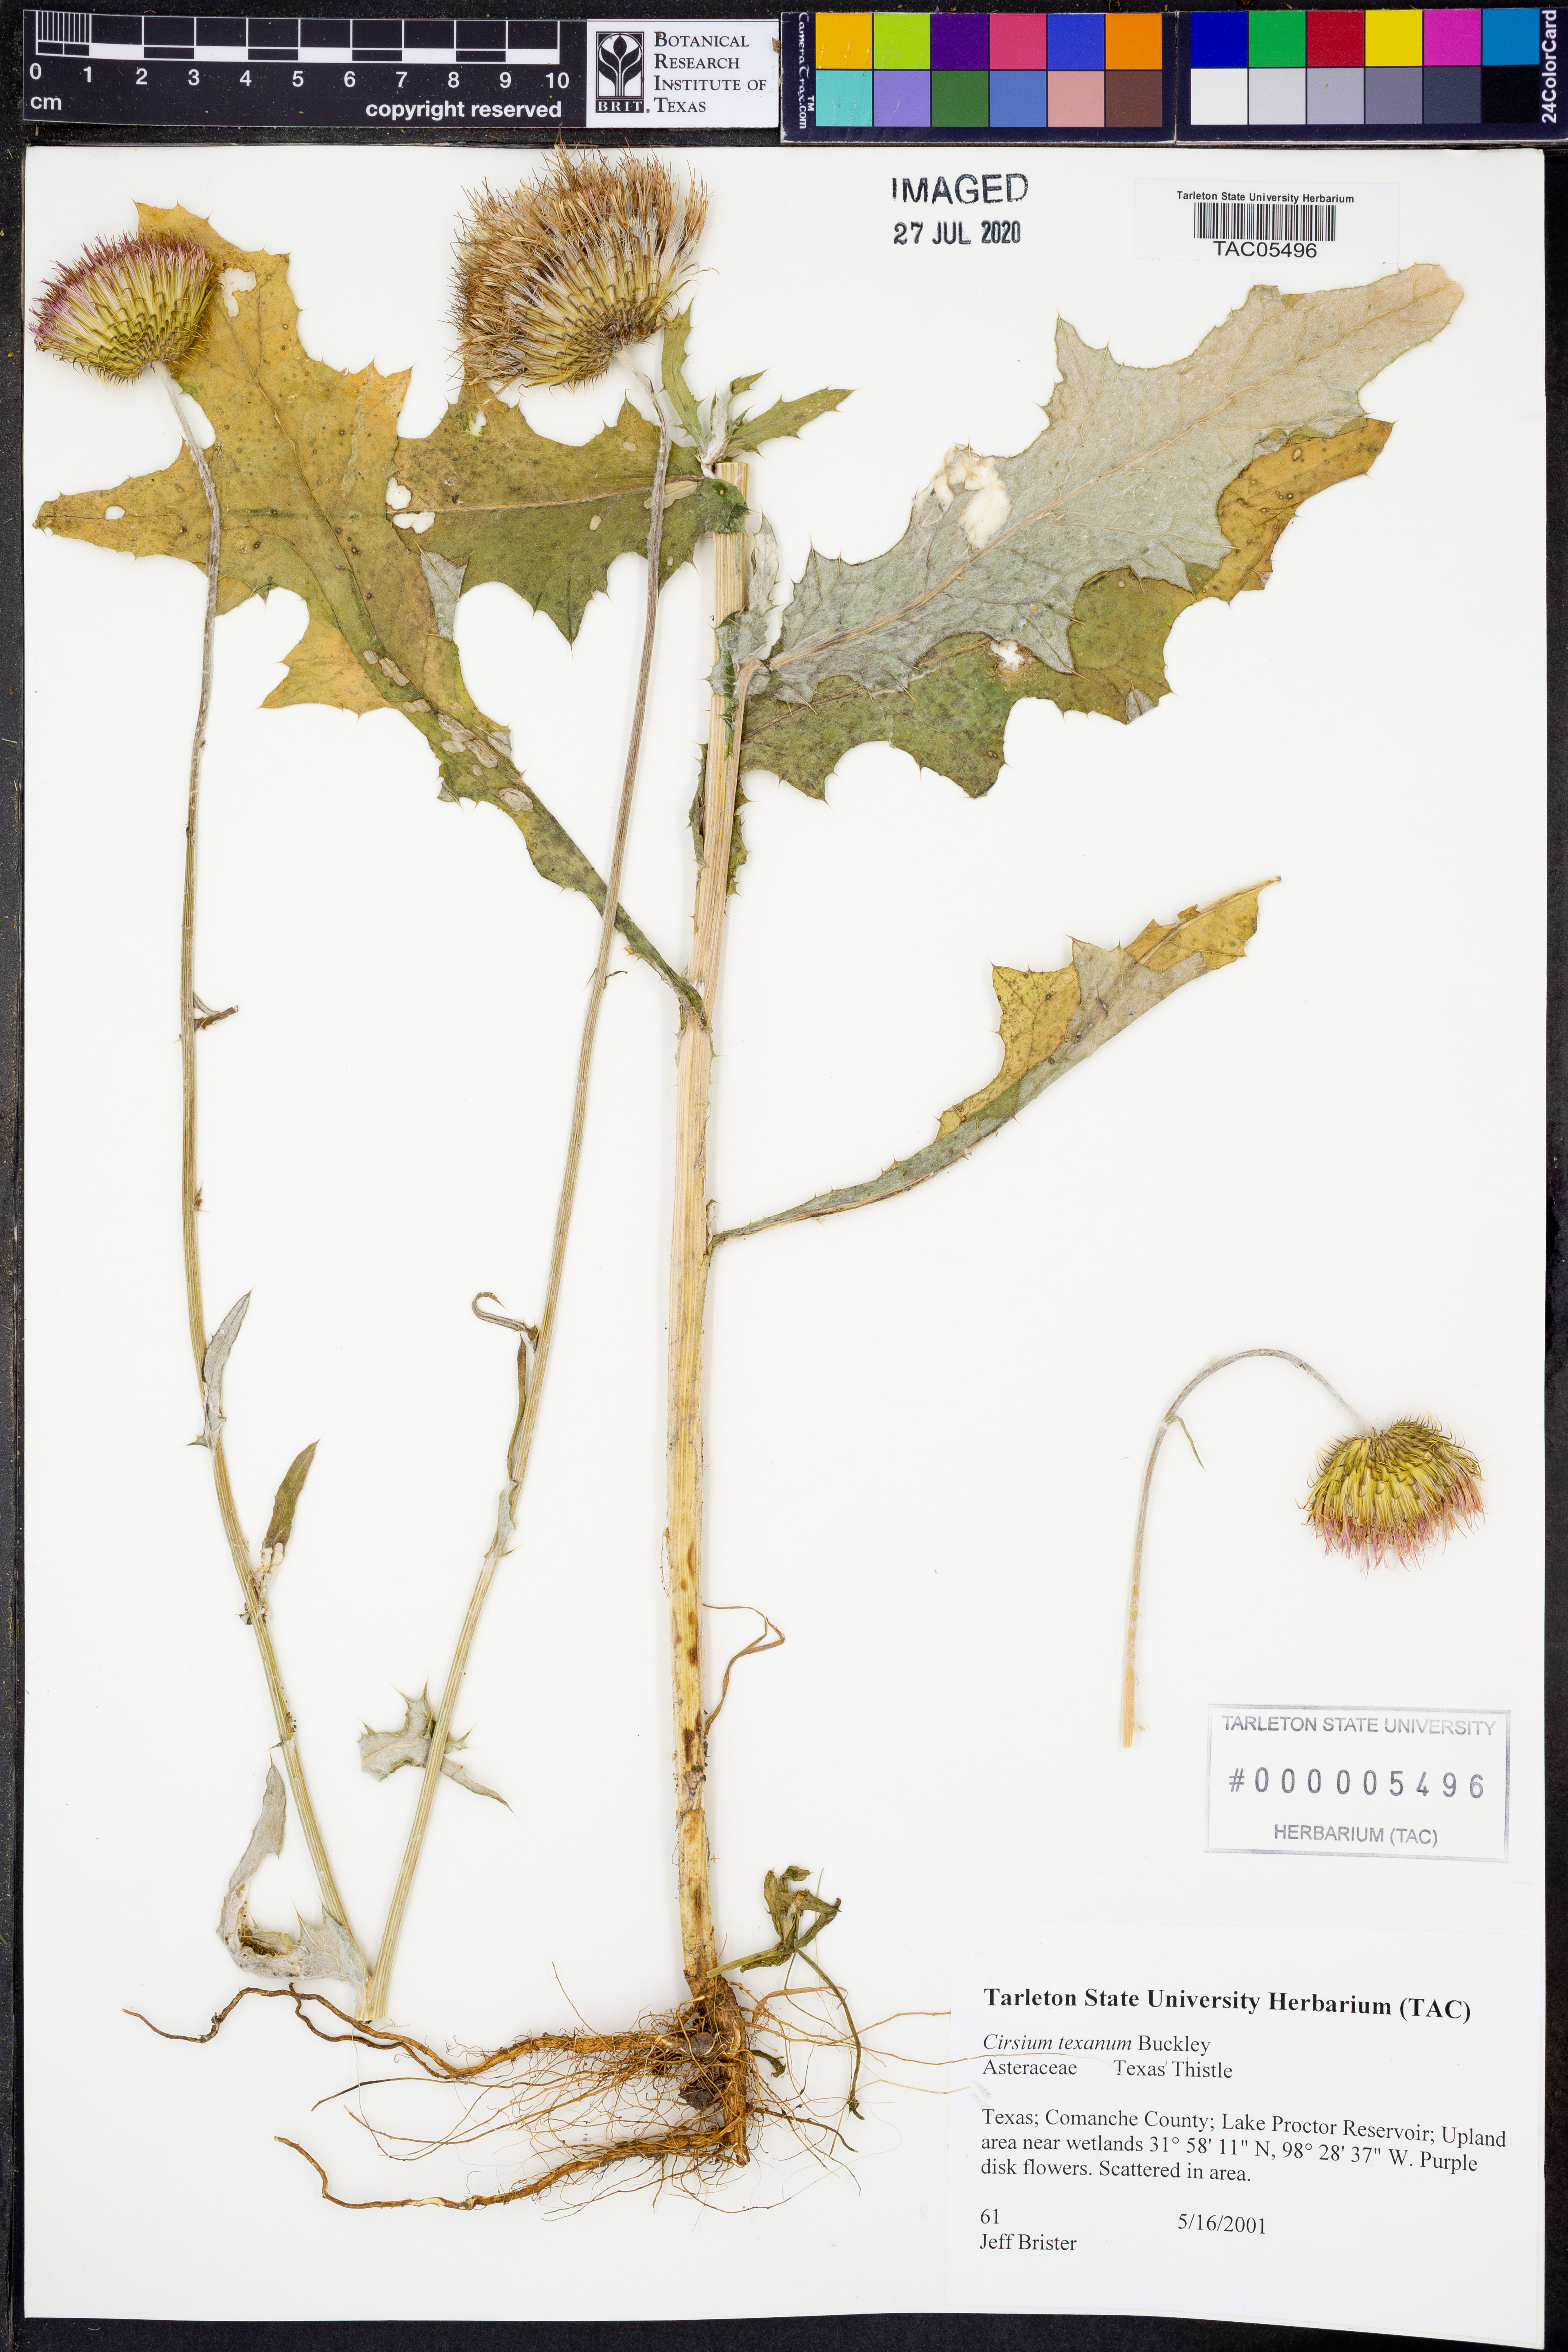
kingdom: Plantae
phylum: Tracheophyta
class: Magnoliopsida
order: Asterales
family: Asteraceae
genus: Cirsium
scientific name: Cirsium texanum
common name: Texas purple thistle
